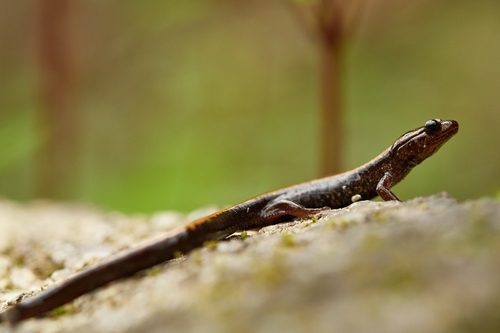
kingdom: Animalia
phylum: Chordata
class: Amphibia
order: Caudata
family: Salamandridae
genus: Chioglossa
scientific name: Chioglossa lusitanica
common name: Gold-striped salamander
